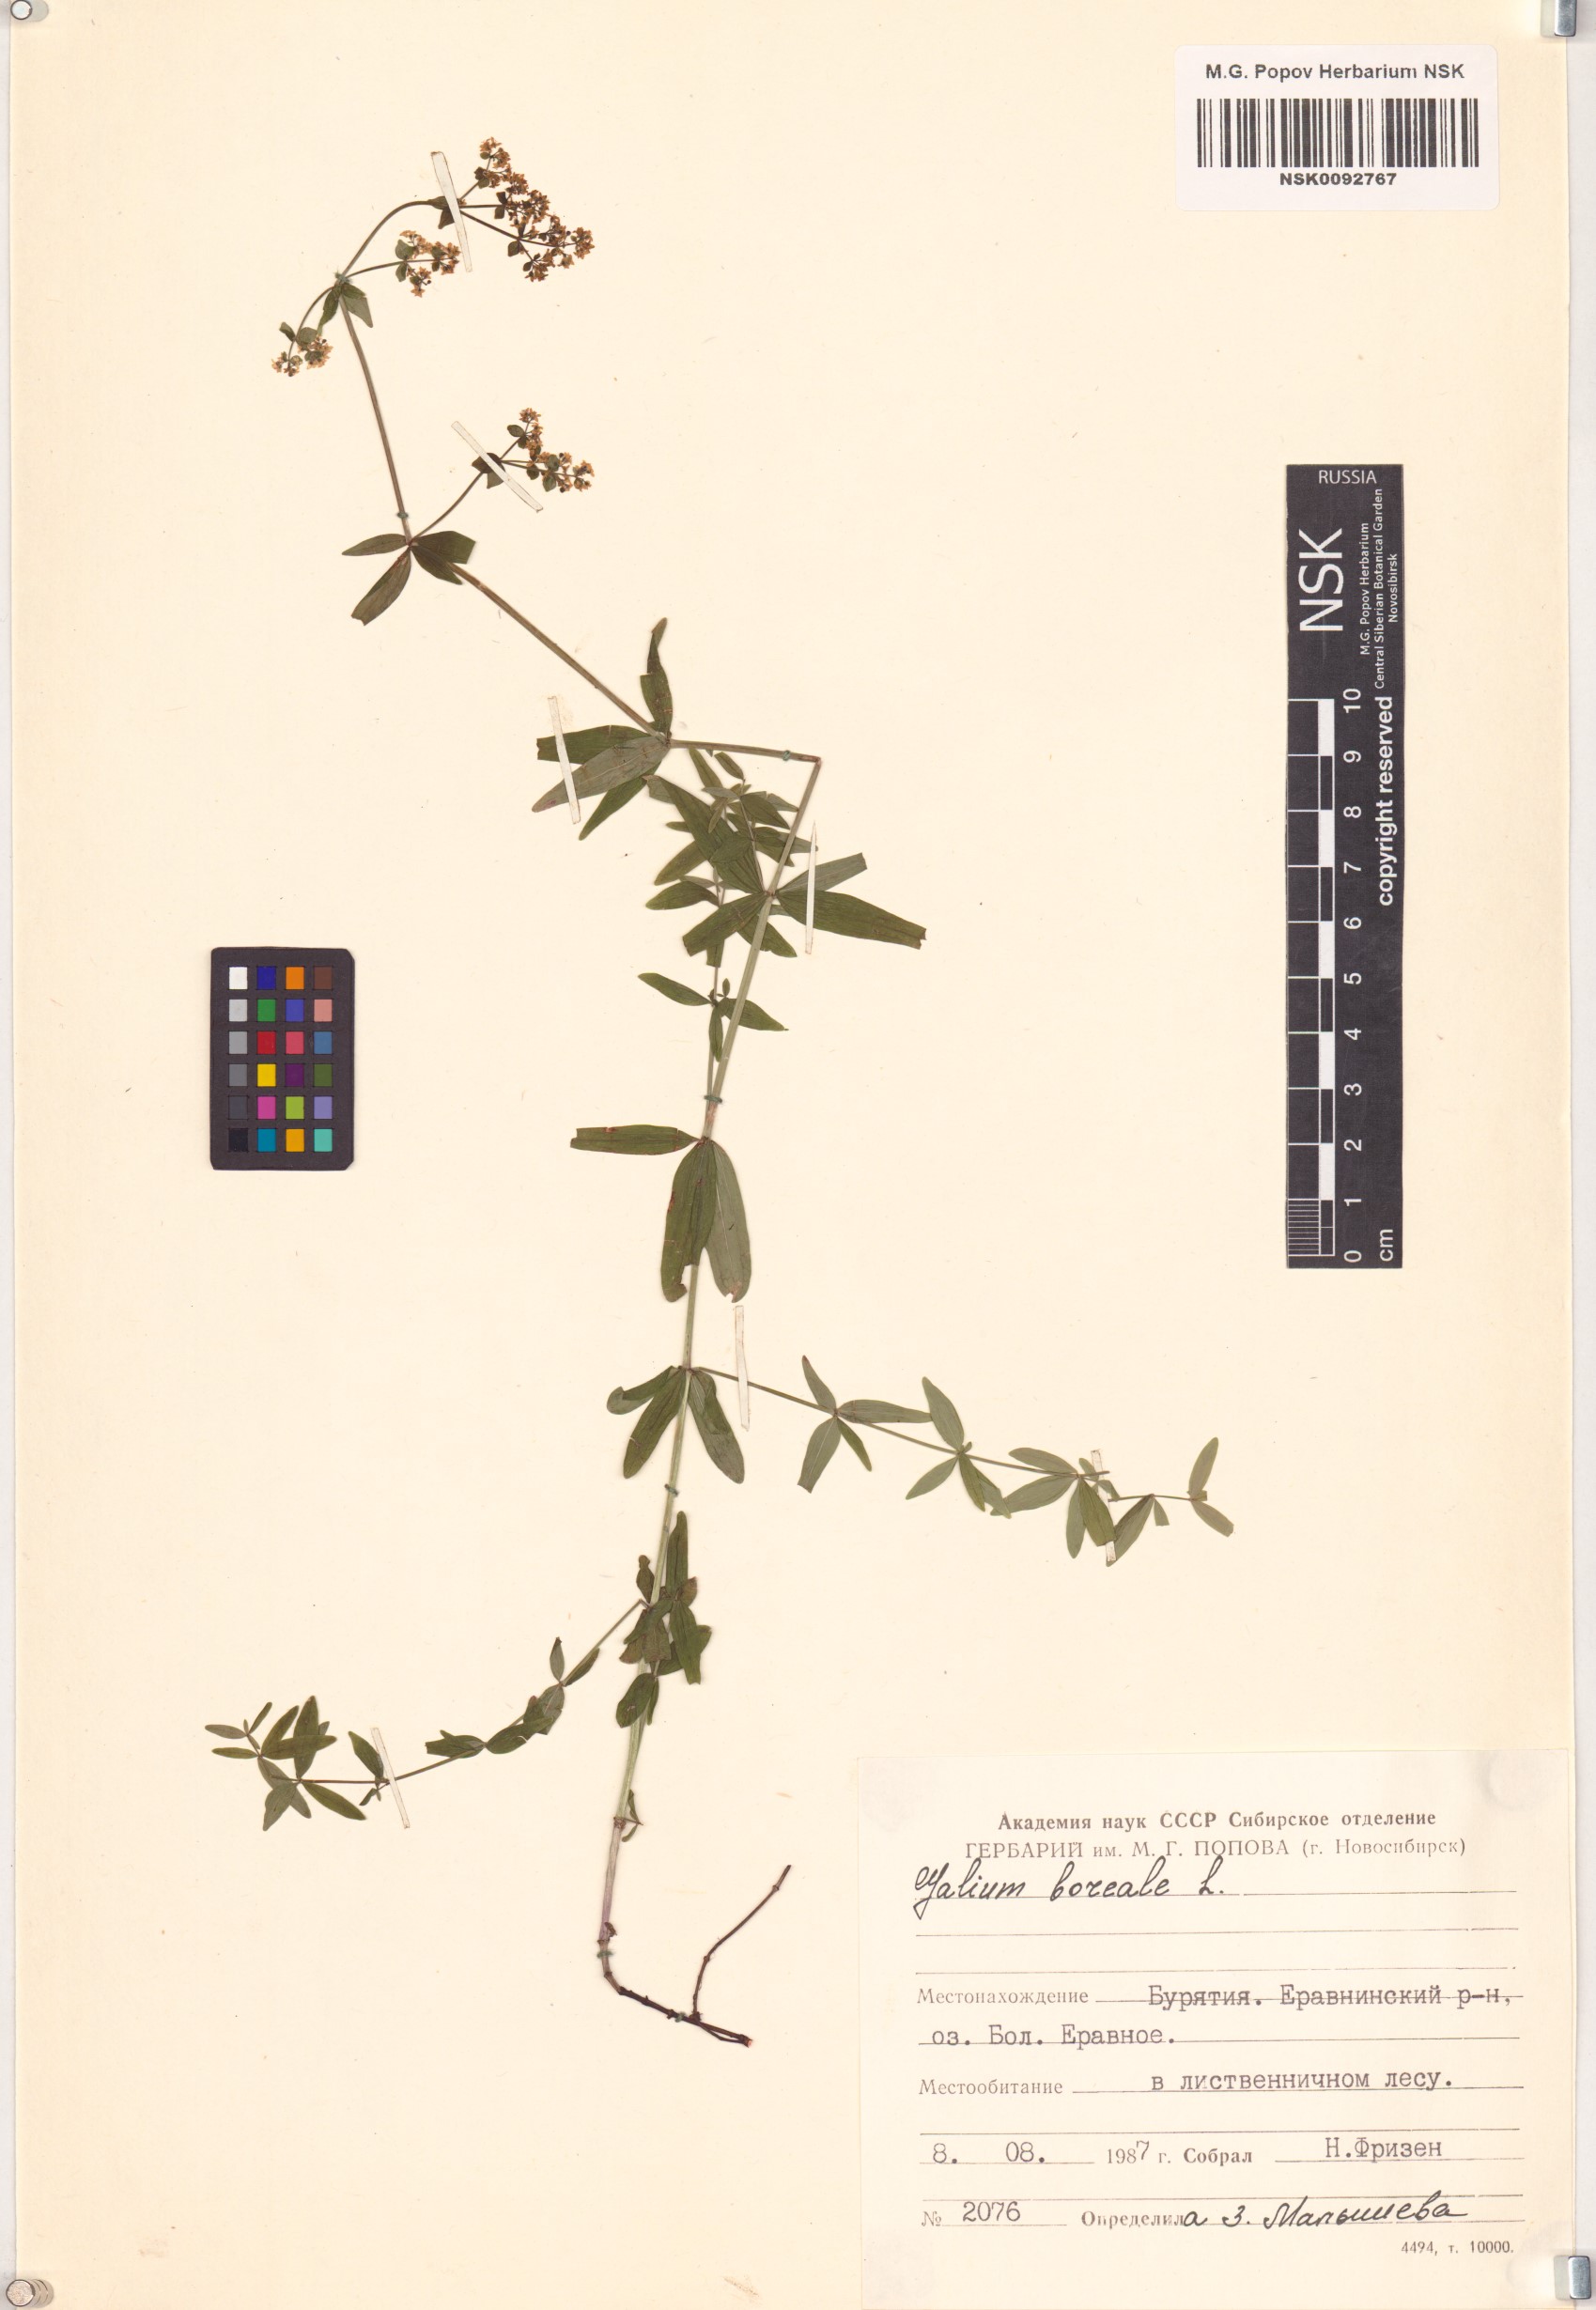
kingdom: Plantae
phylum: Tracheophyta
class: Magnoliopsida
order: Gentianales
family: Rubiaceae
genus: Galium
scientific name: Galium boreale
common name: Northern bedstraw
